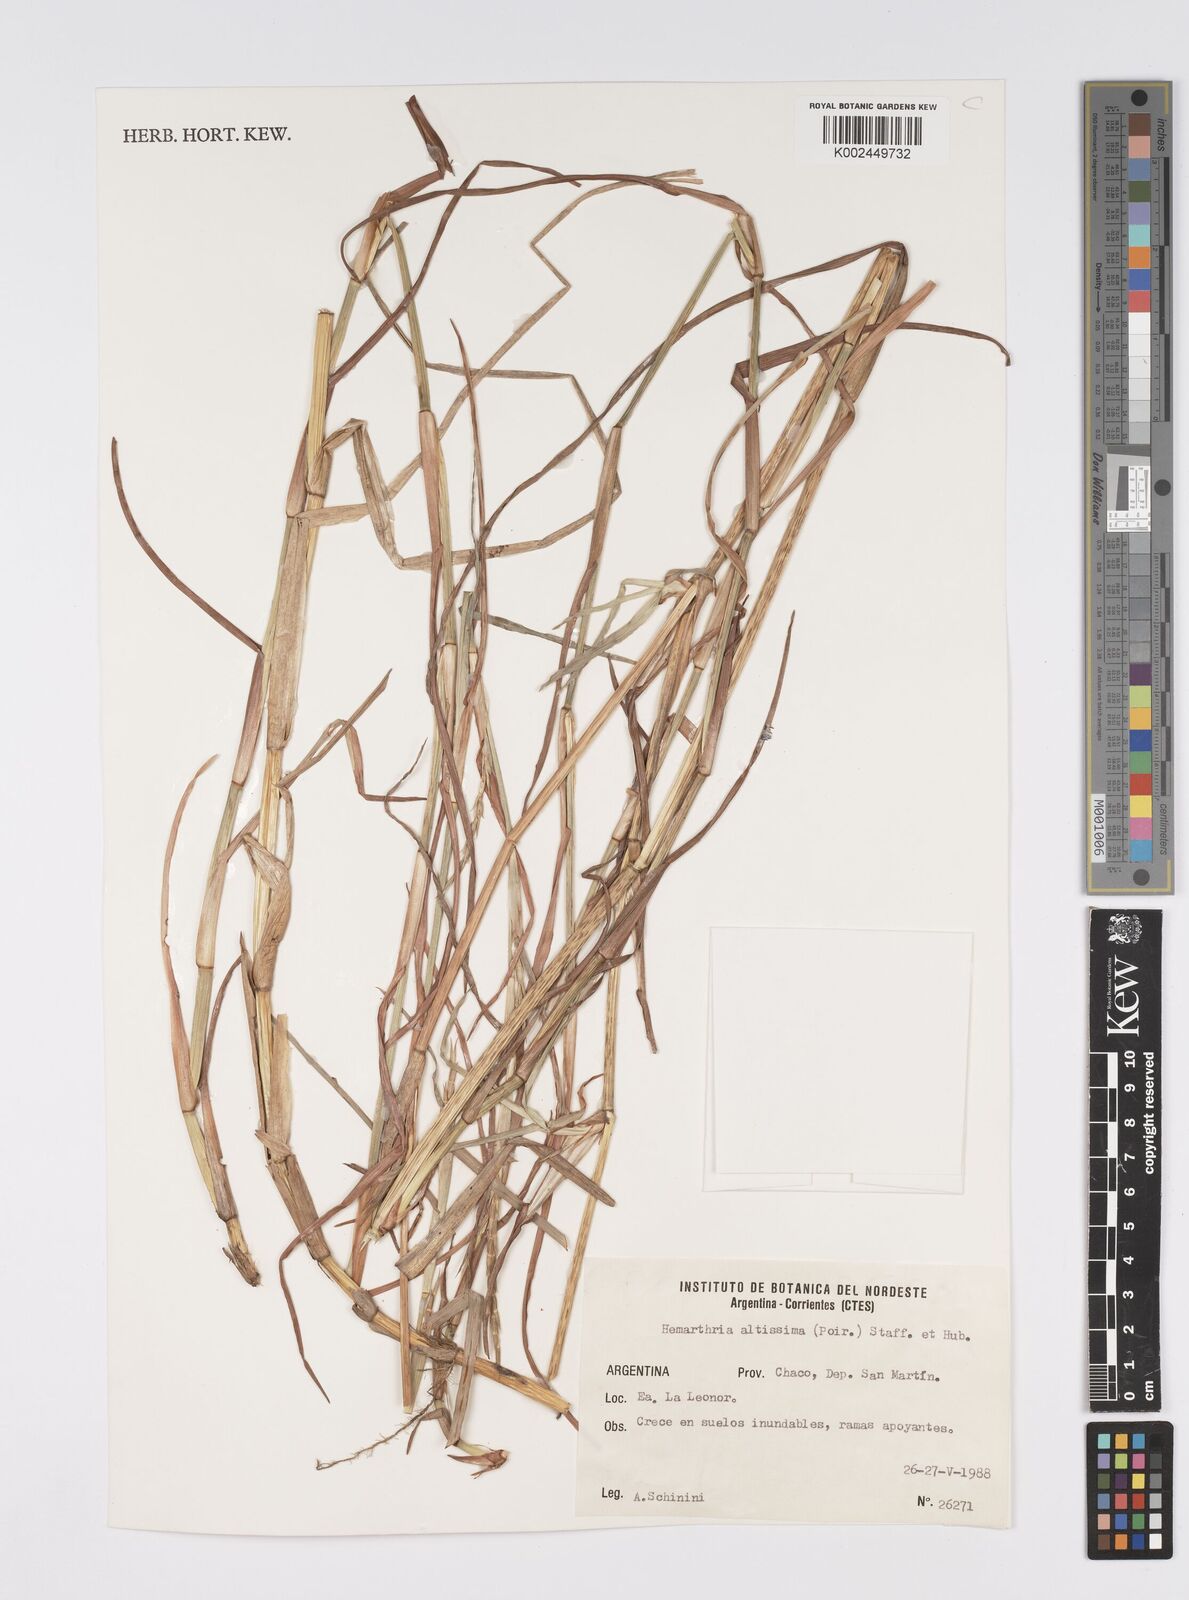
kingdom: Plantae
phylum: Tracheophyta
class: Liliopsida
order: Poales
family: Poaceae
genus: Hemarthria
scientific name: Hemarthria altissima
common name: African jointgrass
